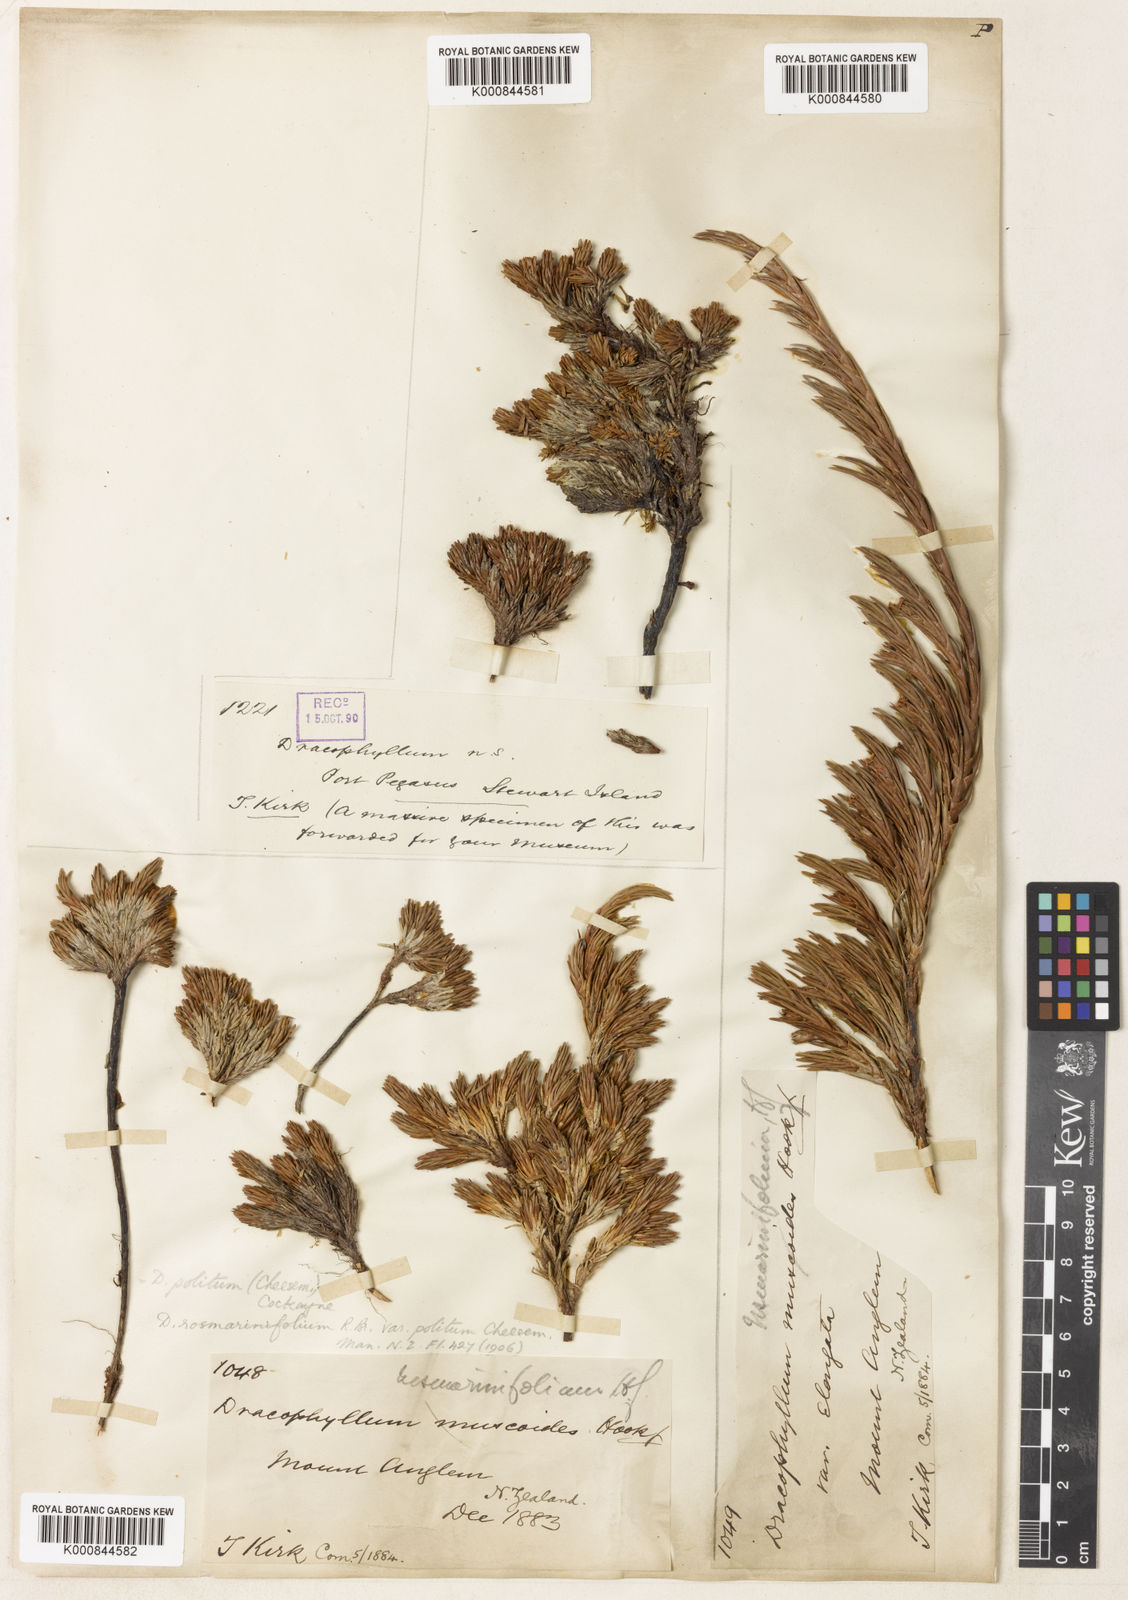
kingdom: Plantae
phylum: Tracheophyta
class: Magnoliopsida
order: Ericales
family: Ericaceae
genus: Dracophyllum
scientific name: Dracophyllum politum
